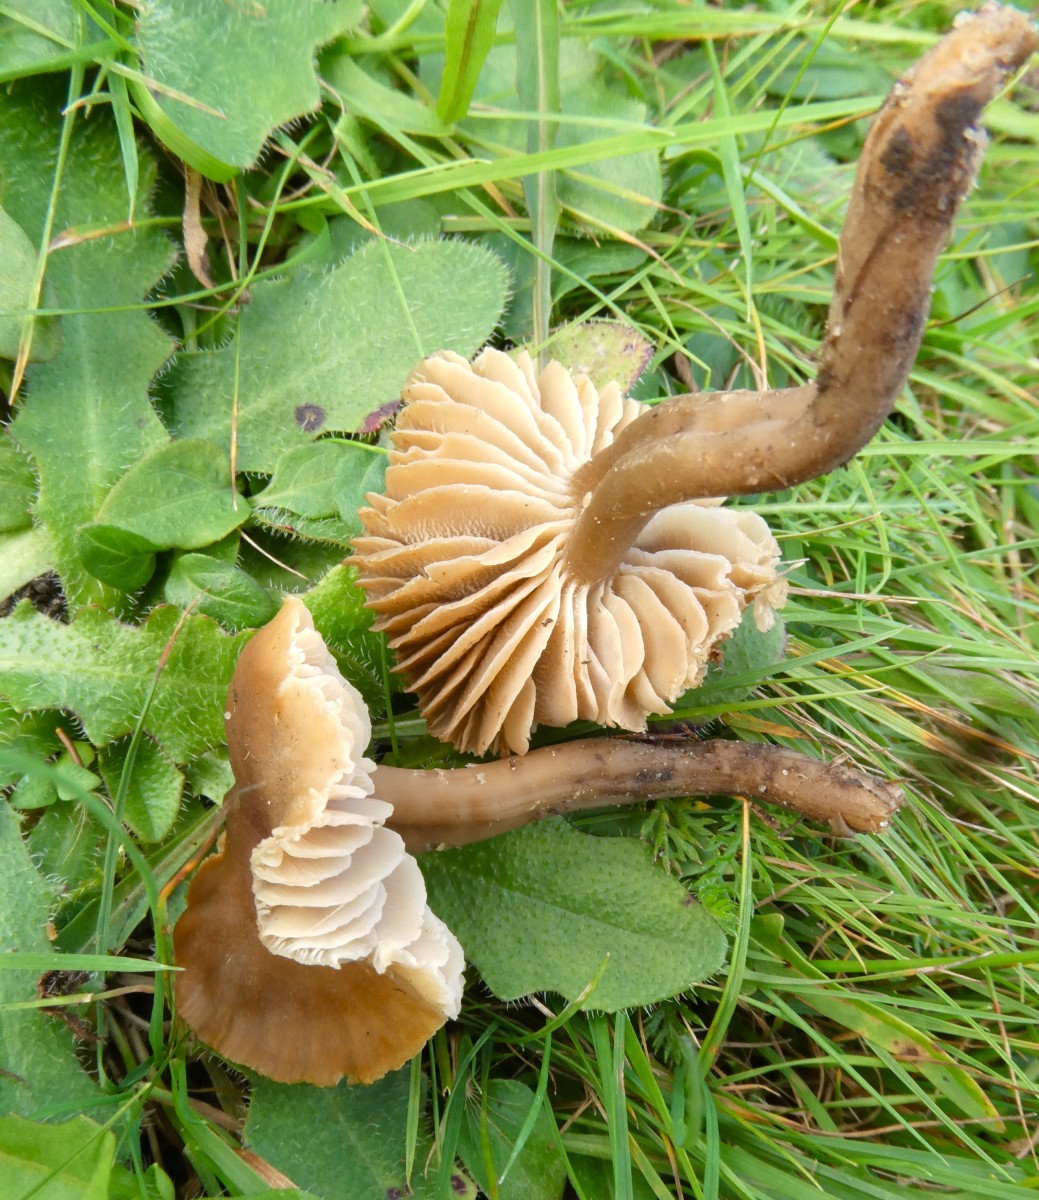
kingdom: Fungi
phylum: Basidiomycota
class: Agaricomycetes
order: Agaricales
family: Clavariaceae
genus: Camarophyllopsis
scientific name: Camarophyllopsis schulzeri
